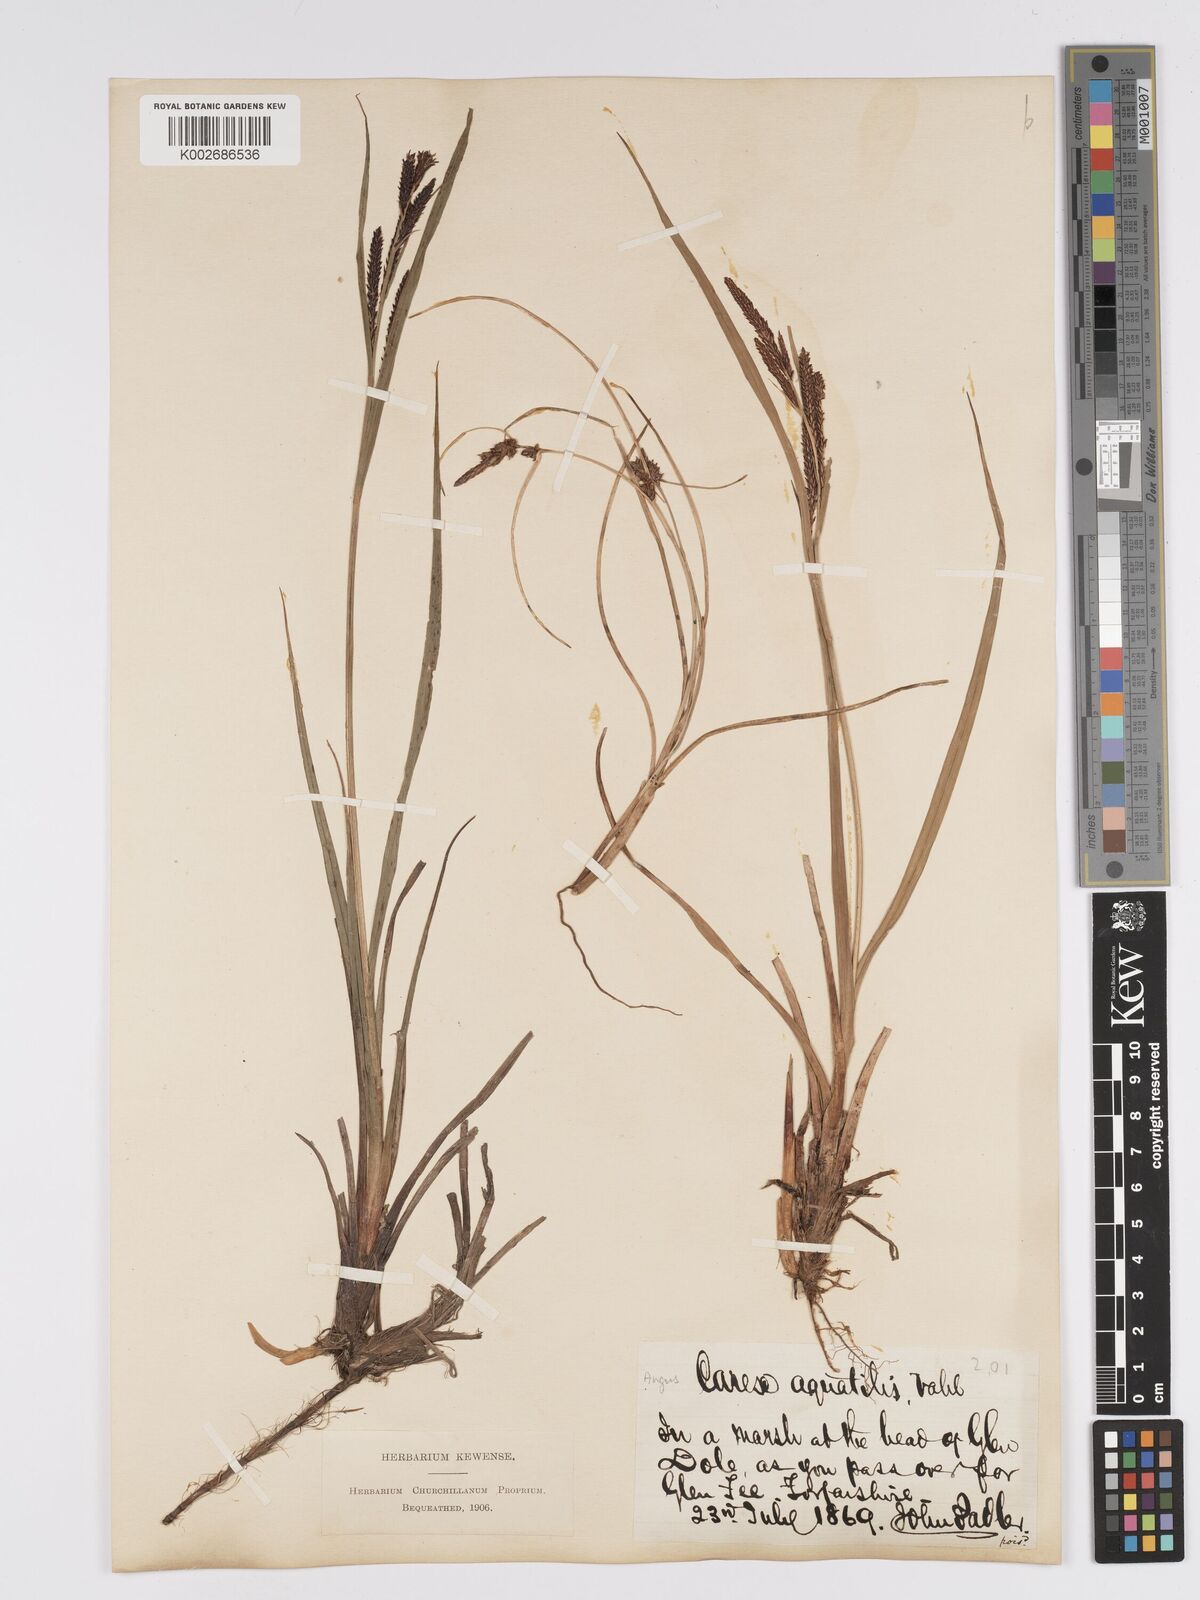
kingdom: Plantae
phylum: Tracheophyta
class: Liliopsida
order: Poales
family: Cyperaceae
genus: Carex
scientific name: Carex aquatilis
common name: Water sedge
